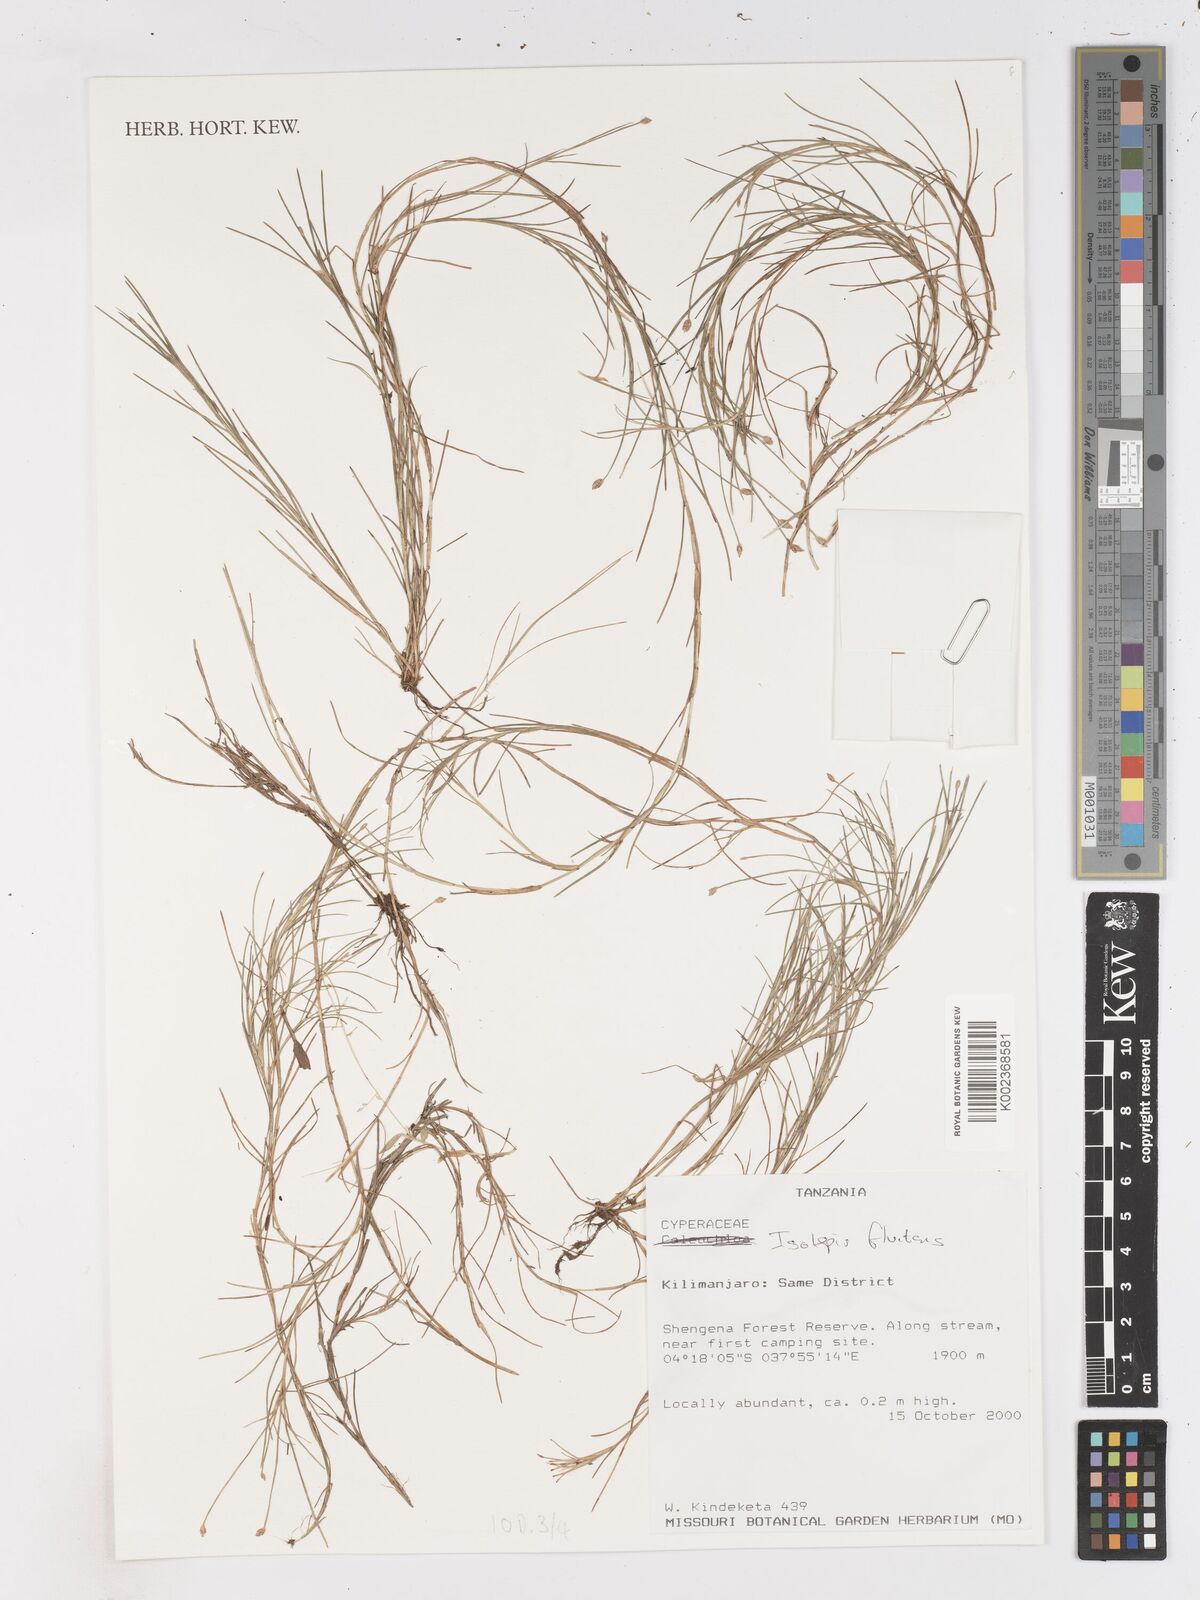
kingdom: Plantae
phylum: Tracheophyta
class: Liliopsida
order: Poales
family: Cyperaceae
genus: Isolepis
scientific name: Isolepis fluitans
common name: Floating club-rush
